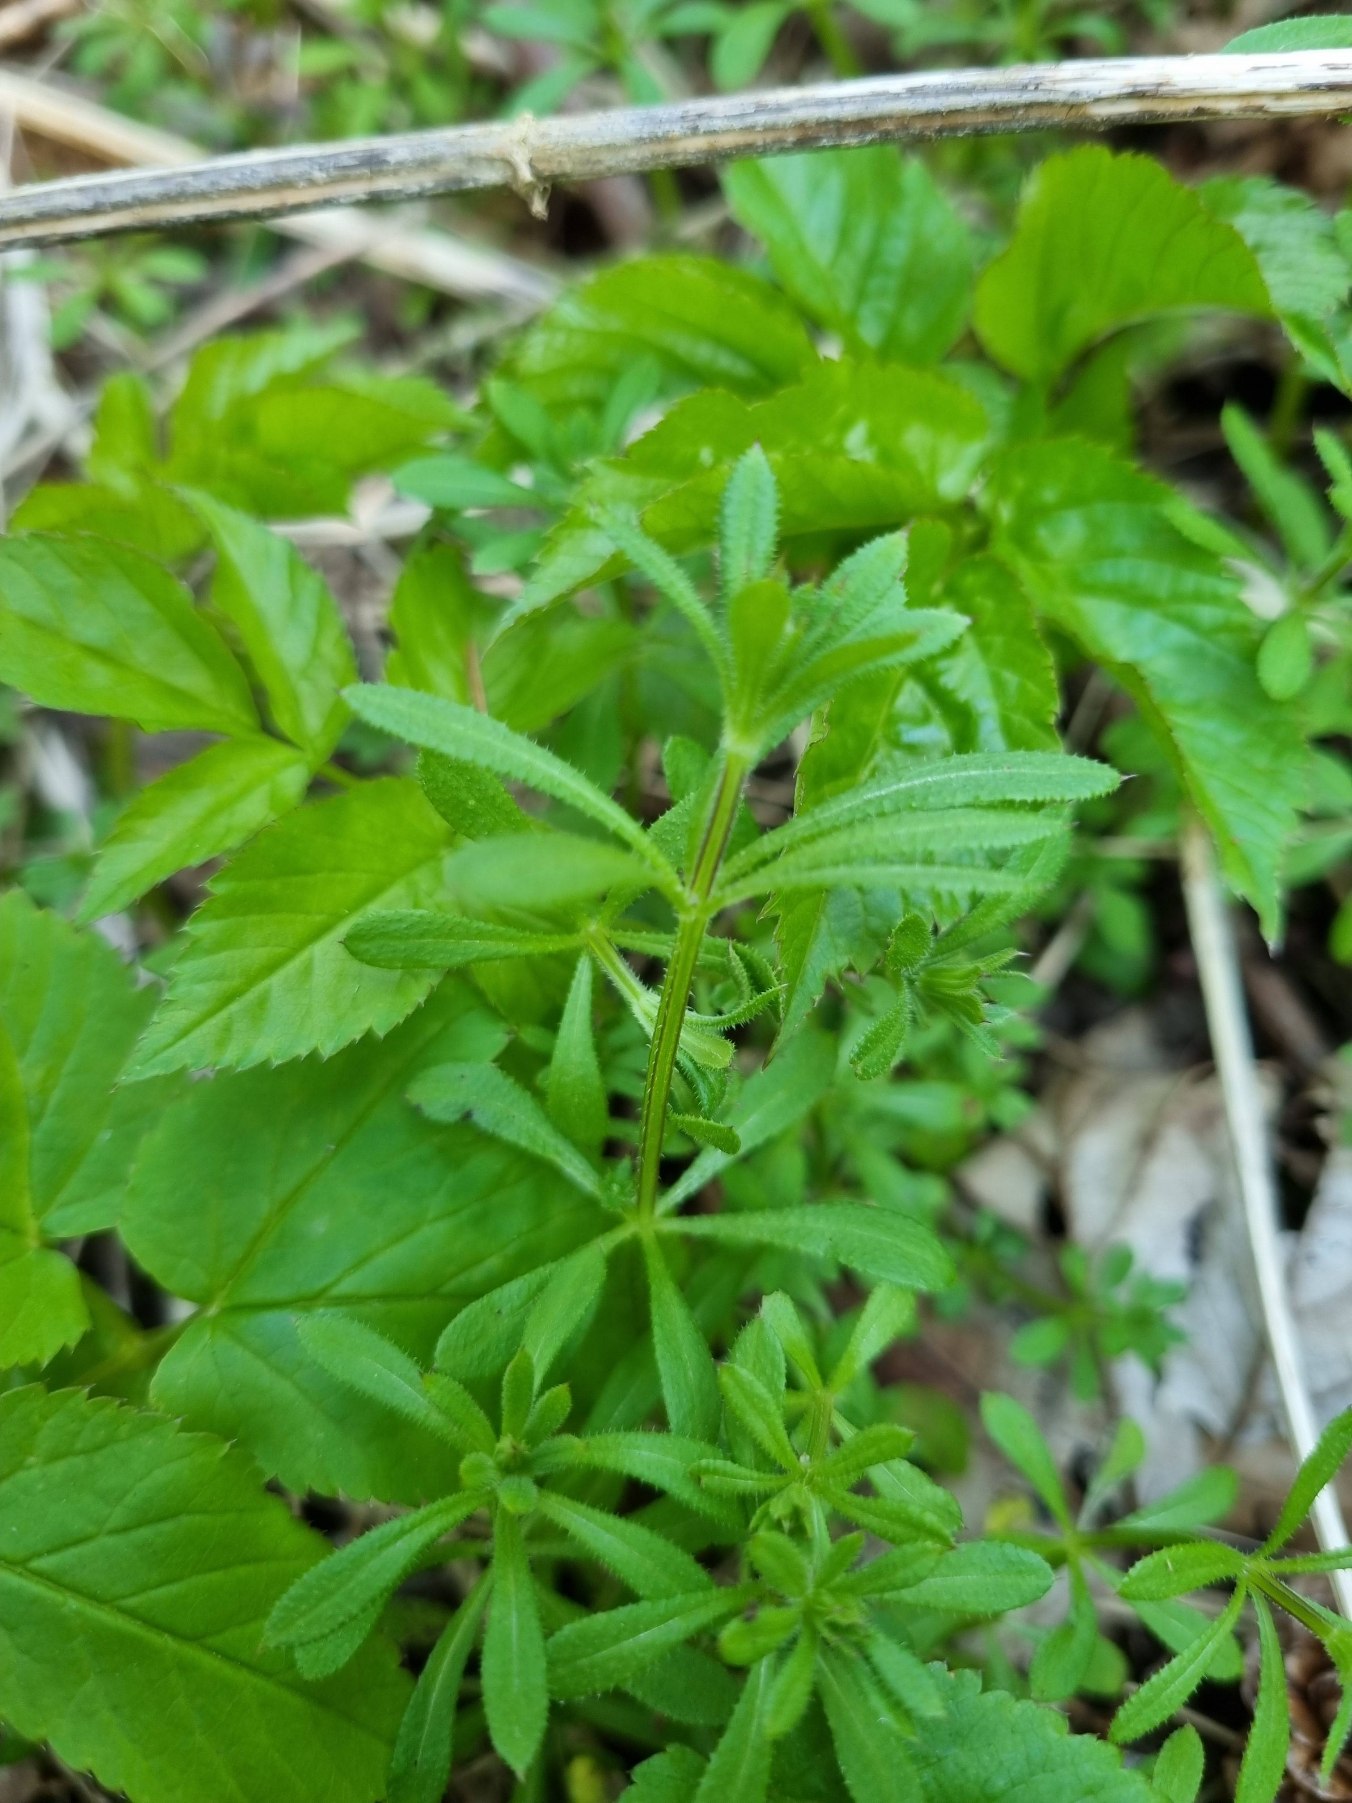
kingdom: Plantae
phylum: Tracheophyta
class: Magnoliopsida
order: Gentianales
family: Rubiaceae
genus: Galium
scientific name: Galium aparine
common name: Burre-snerre
